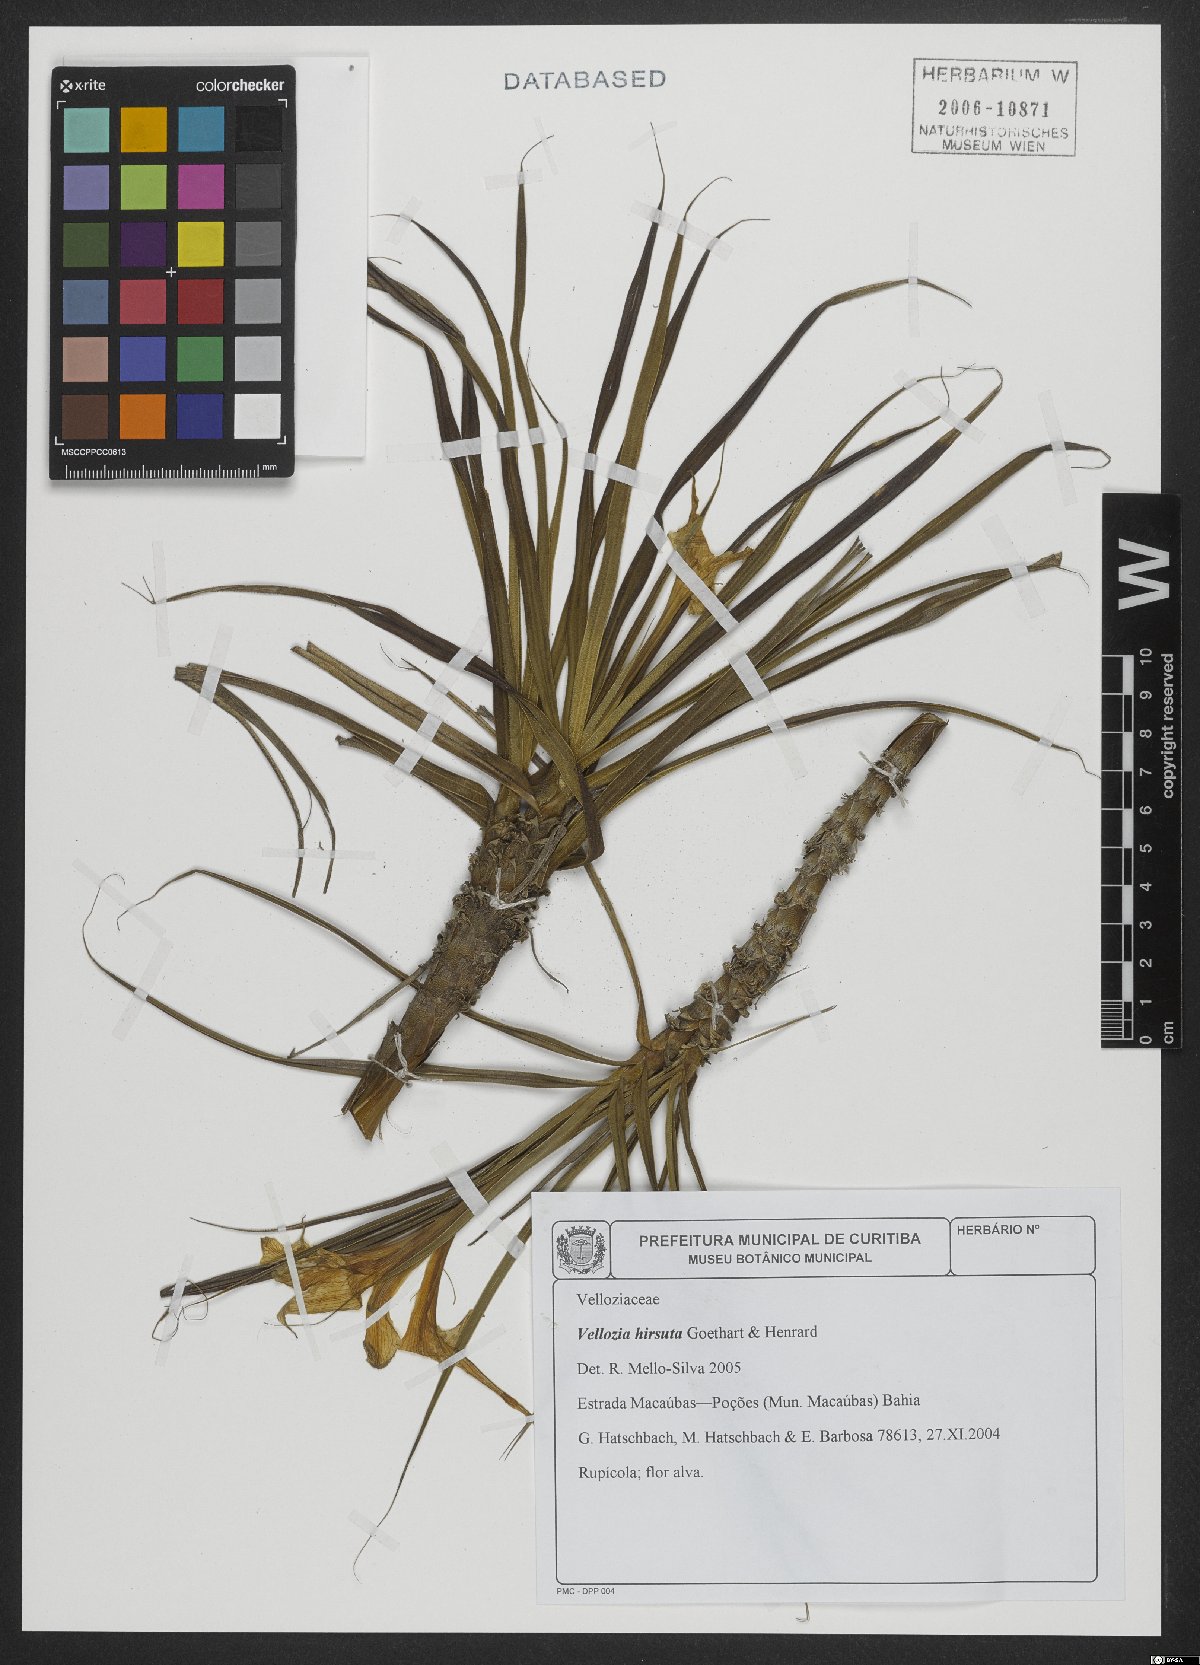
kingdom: Plantae
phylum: Tracheophyta
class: Liliopsida
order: Pandanales
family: Velloziaceae
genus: Vellozia
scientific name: Vellozia hirsuta
